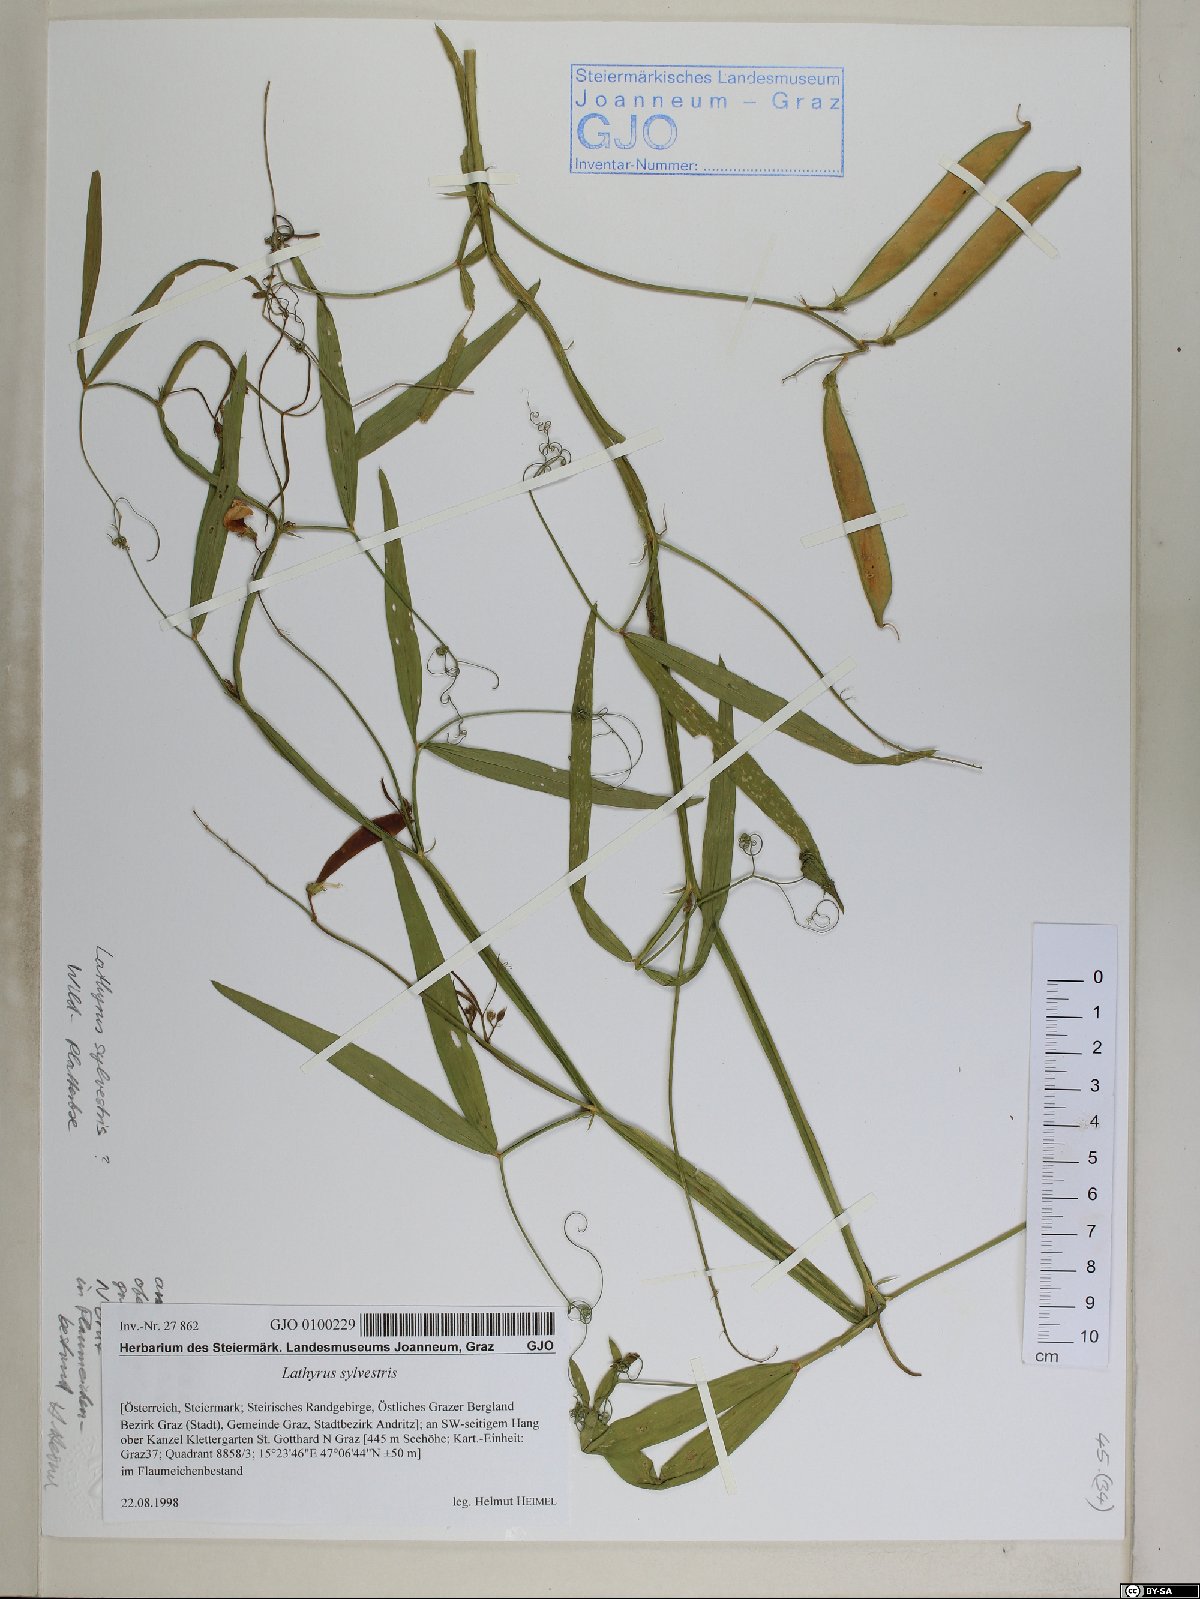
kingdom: Plantae
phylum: Tracheophyta
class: Magnoliopsida
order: Fabales
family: Fabaceae
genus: Lathyrus
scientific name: Lathyrus sylvestris
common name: Flat pea
